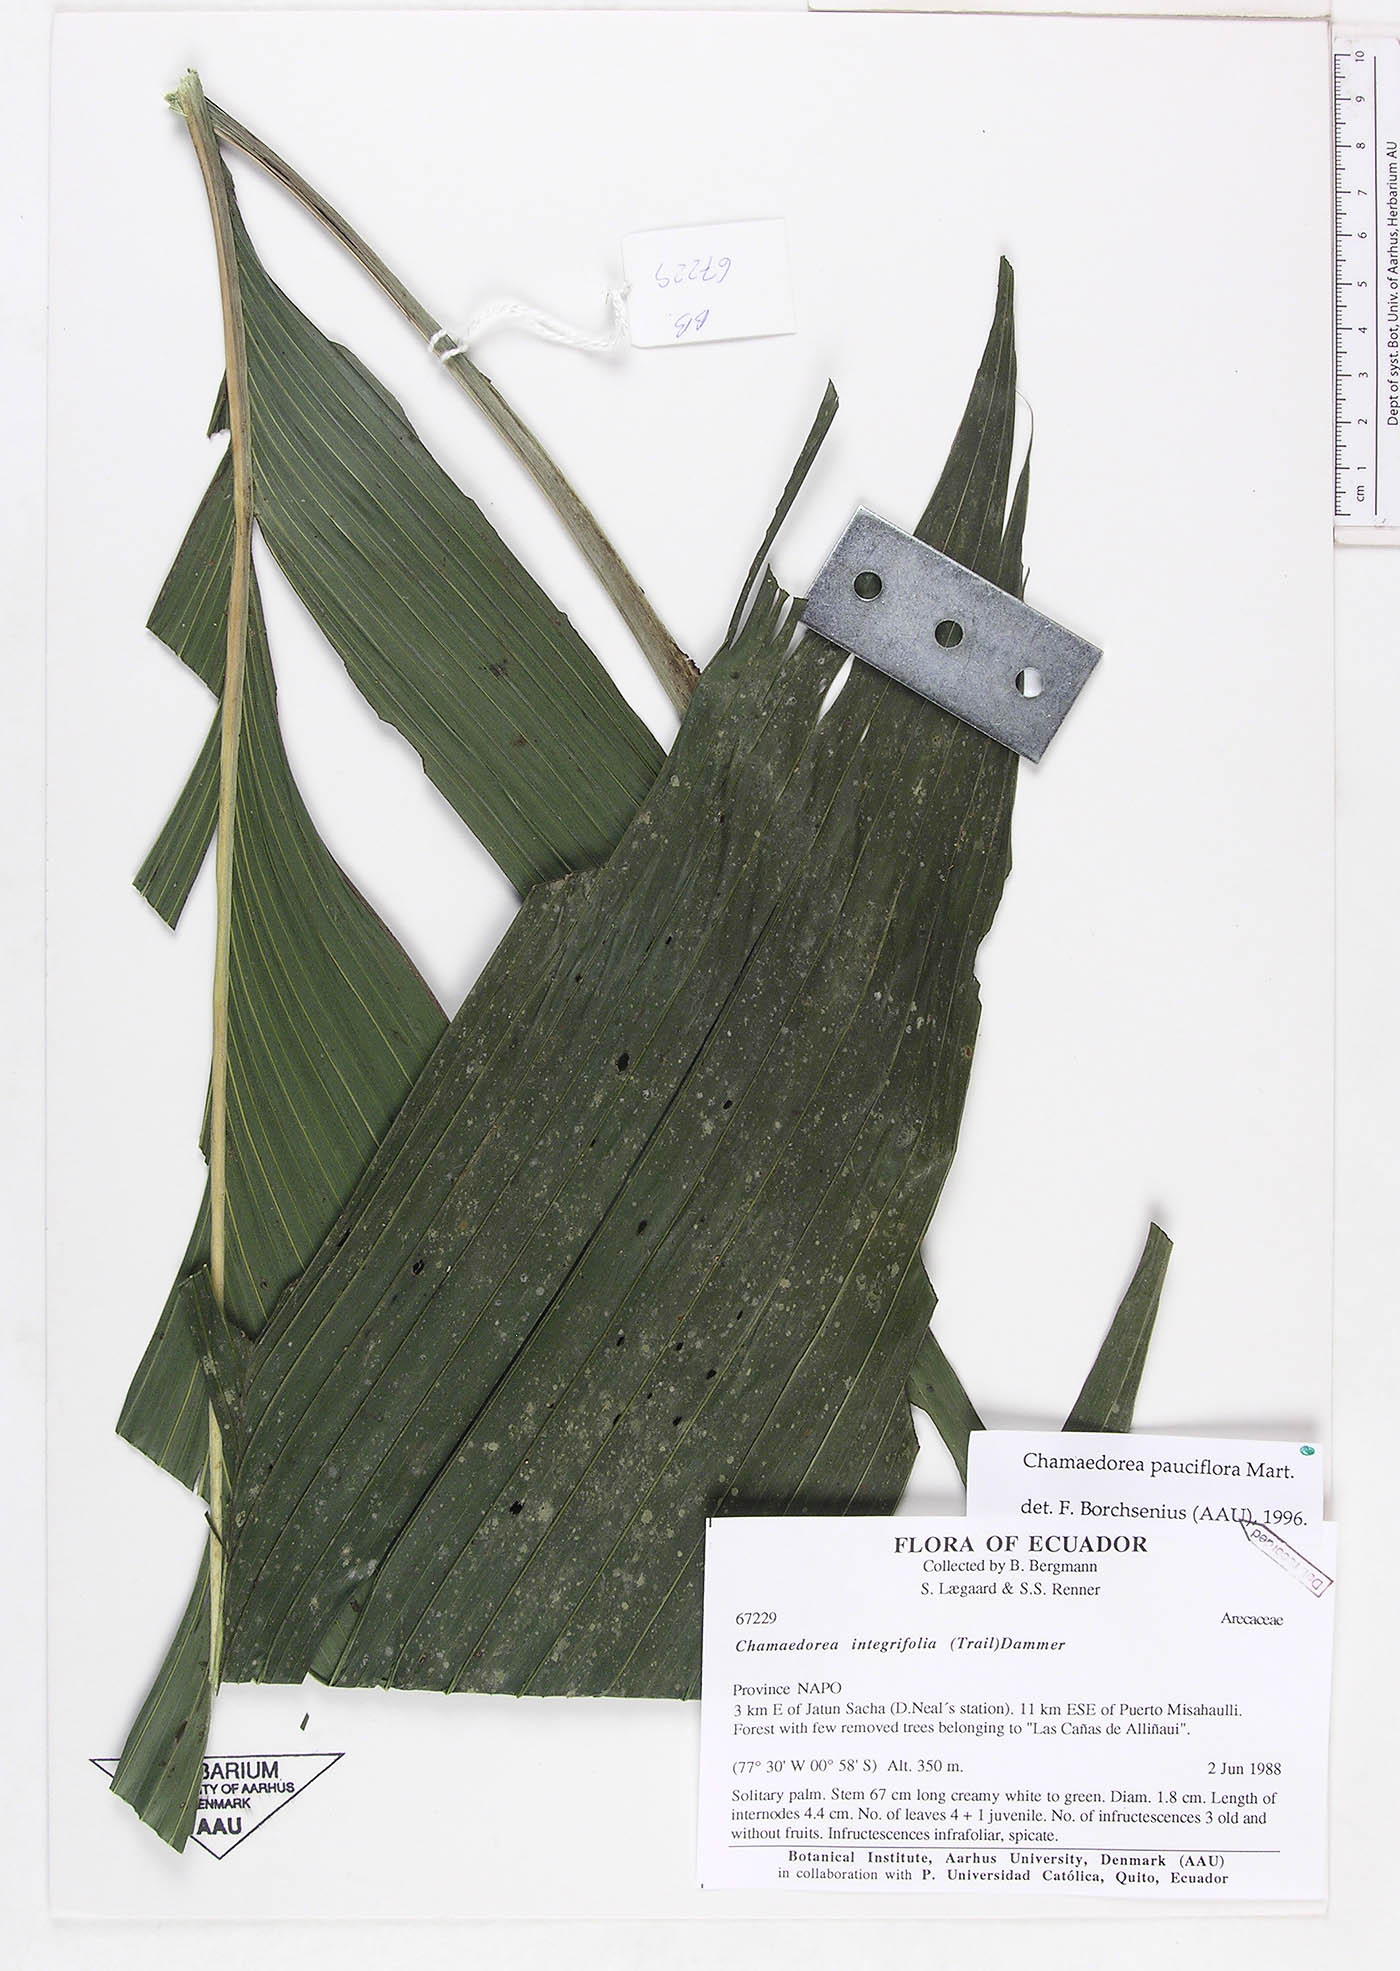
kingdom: Plantae
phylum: Tracheophyta
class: Liliopsida
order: Arecales
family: Arecaceae
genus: Chamaedorea
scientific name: Chamaedorea pauciflora
